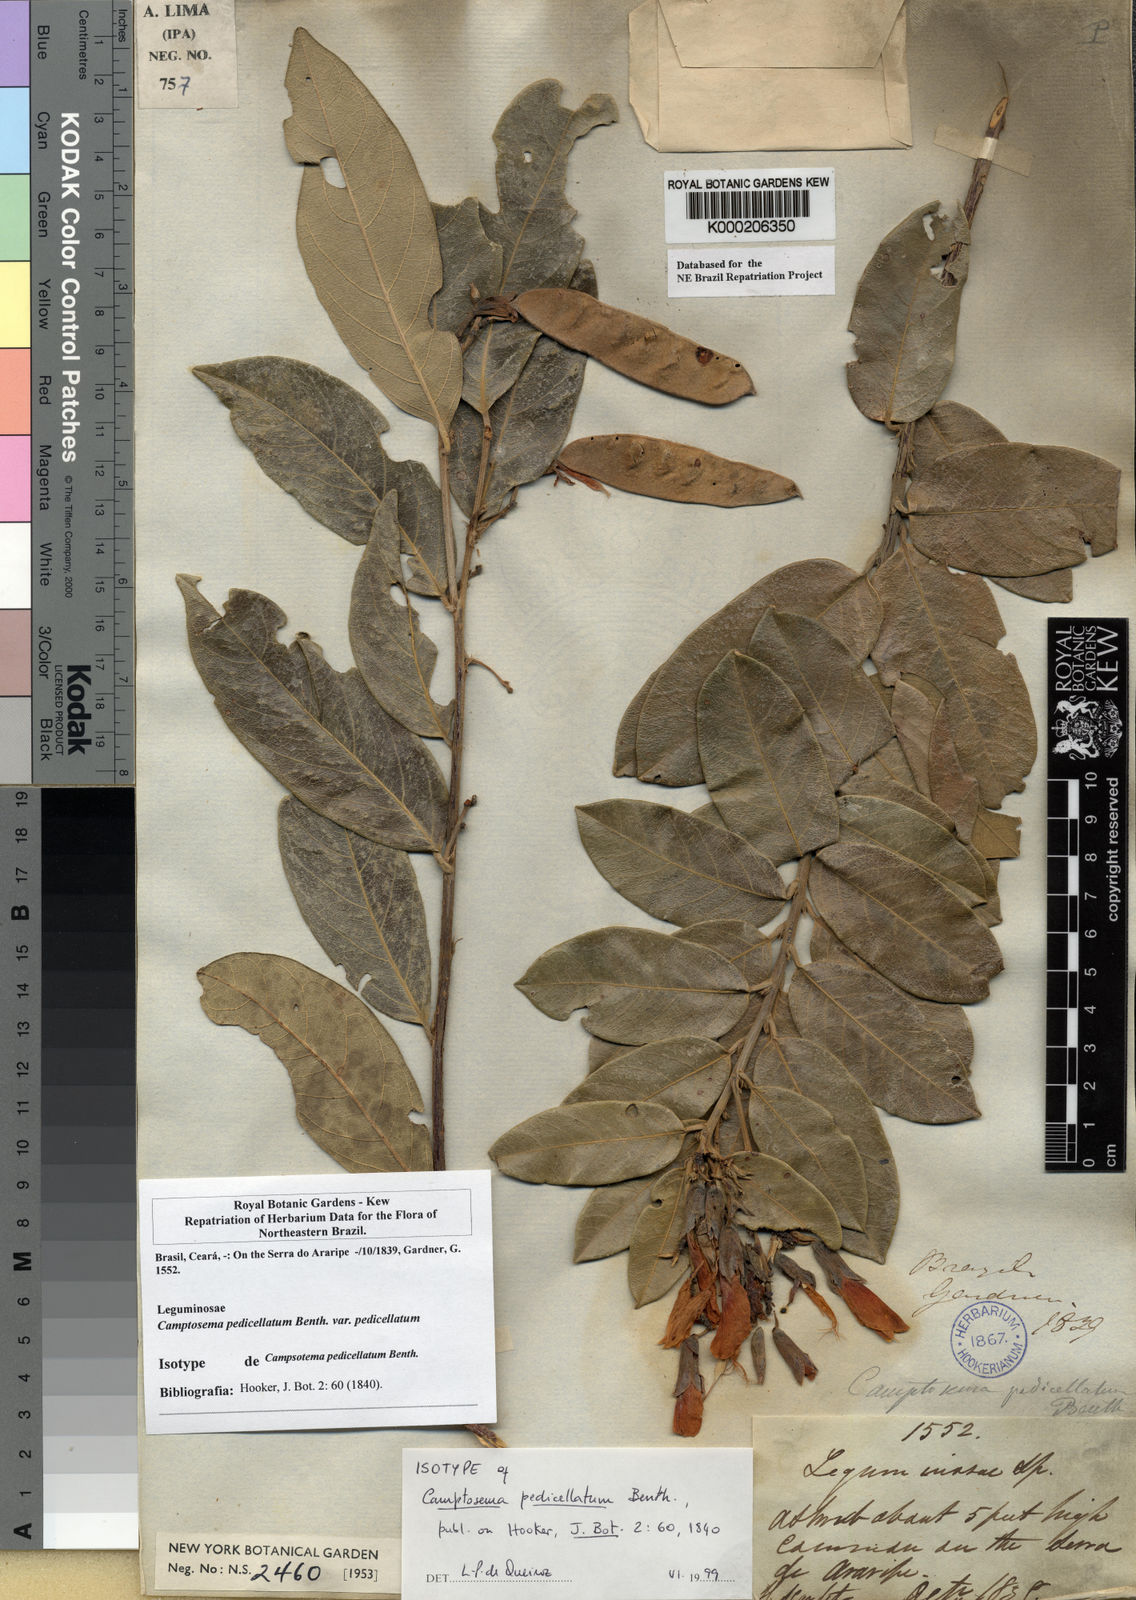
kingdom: Plantae
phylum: Tracheophyta
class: Magnoliopsida
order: Fabales
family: Fabaceae
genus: Camptosema
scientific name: Camptosema pedicellatum
